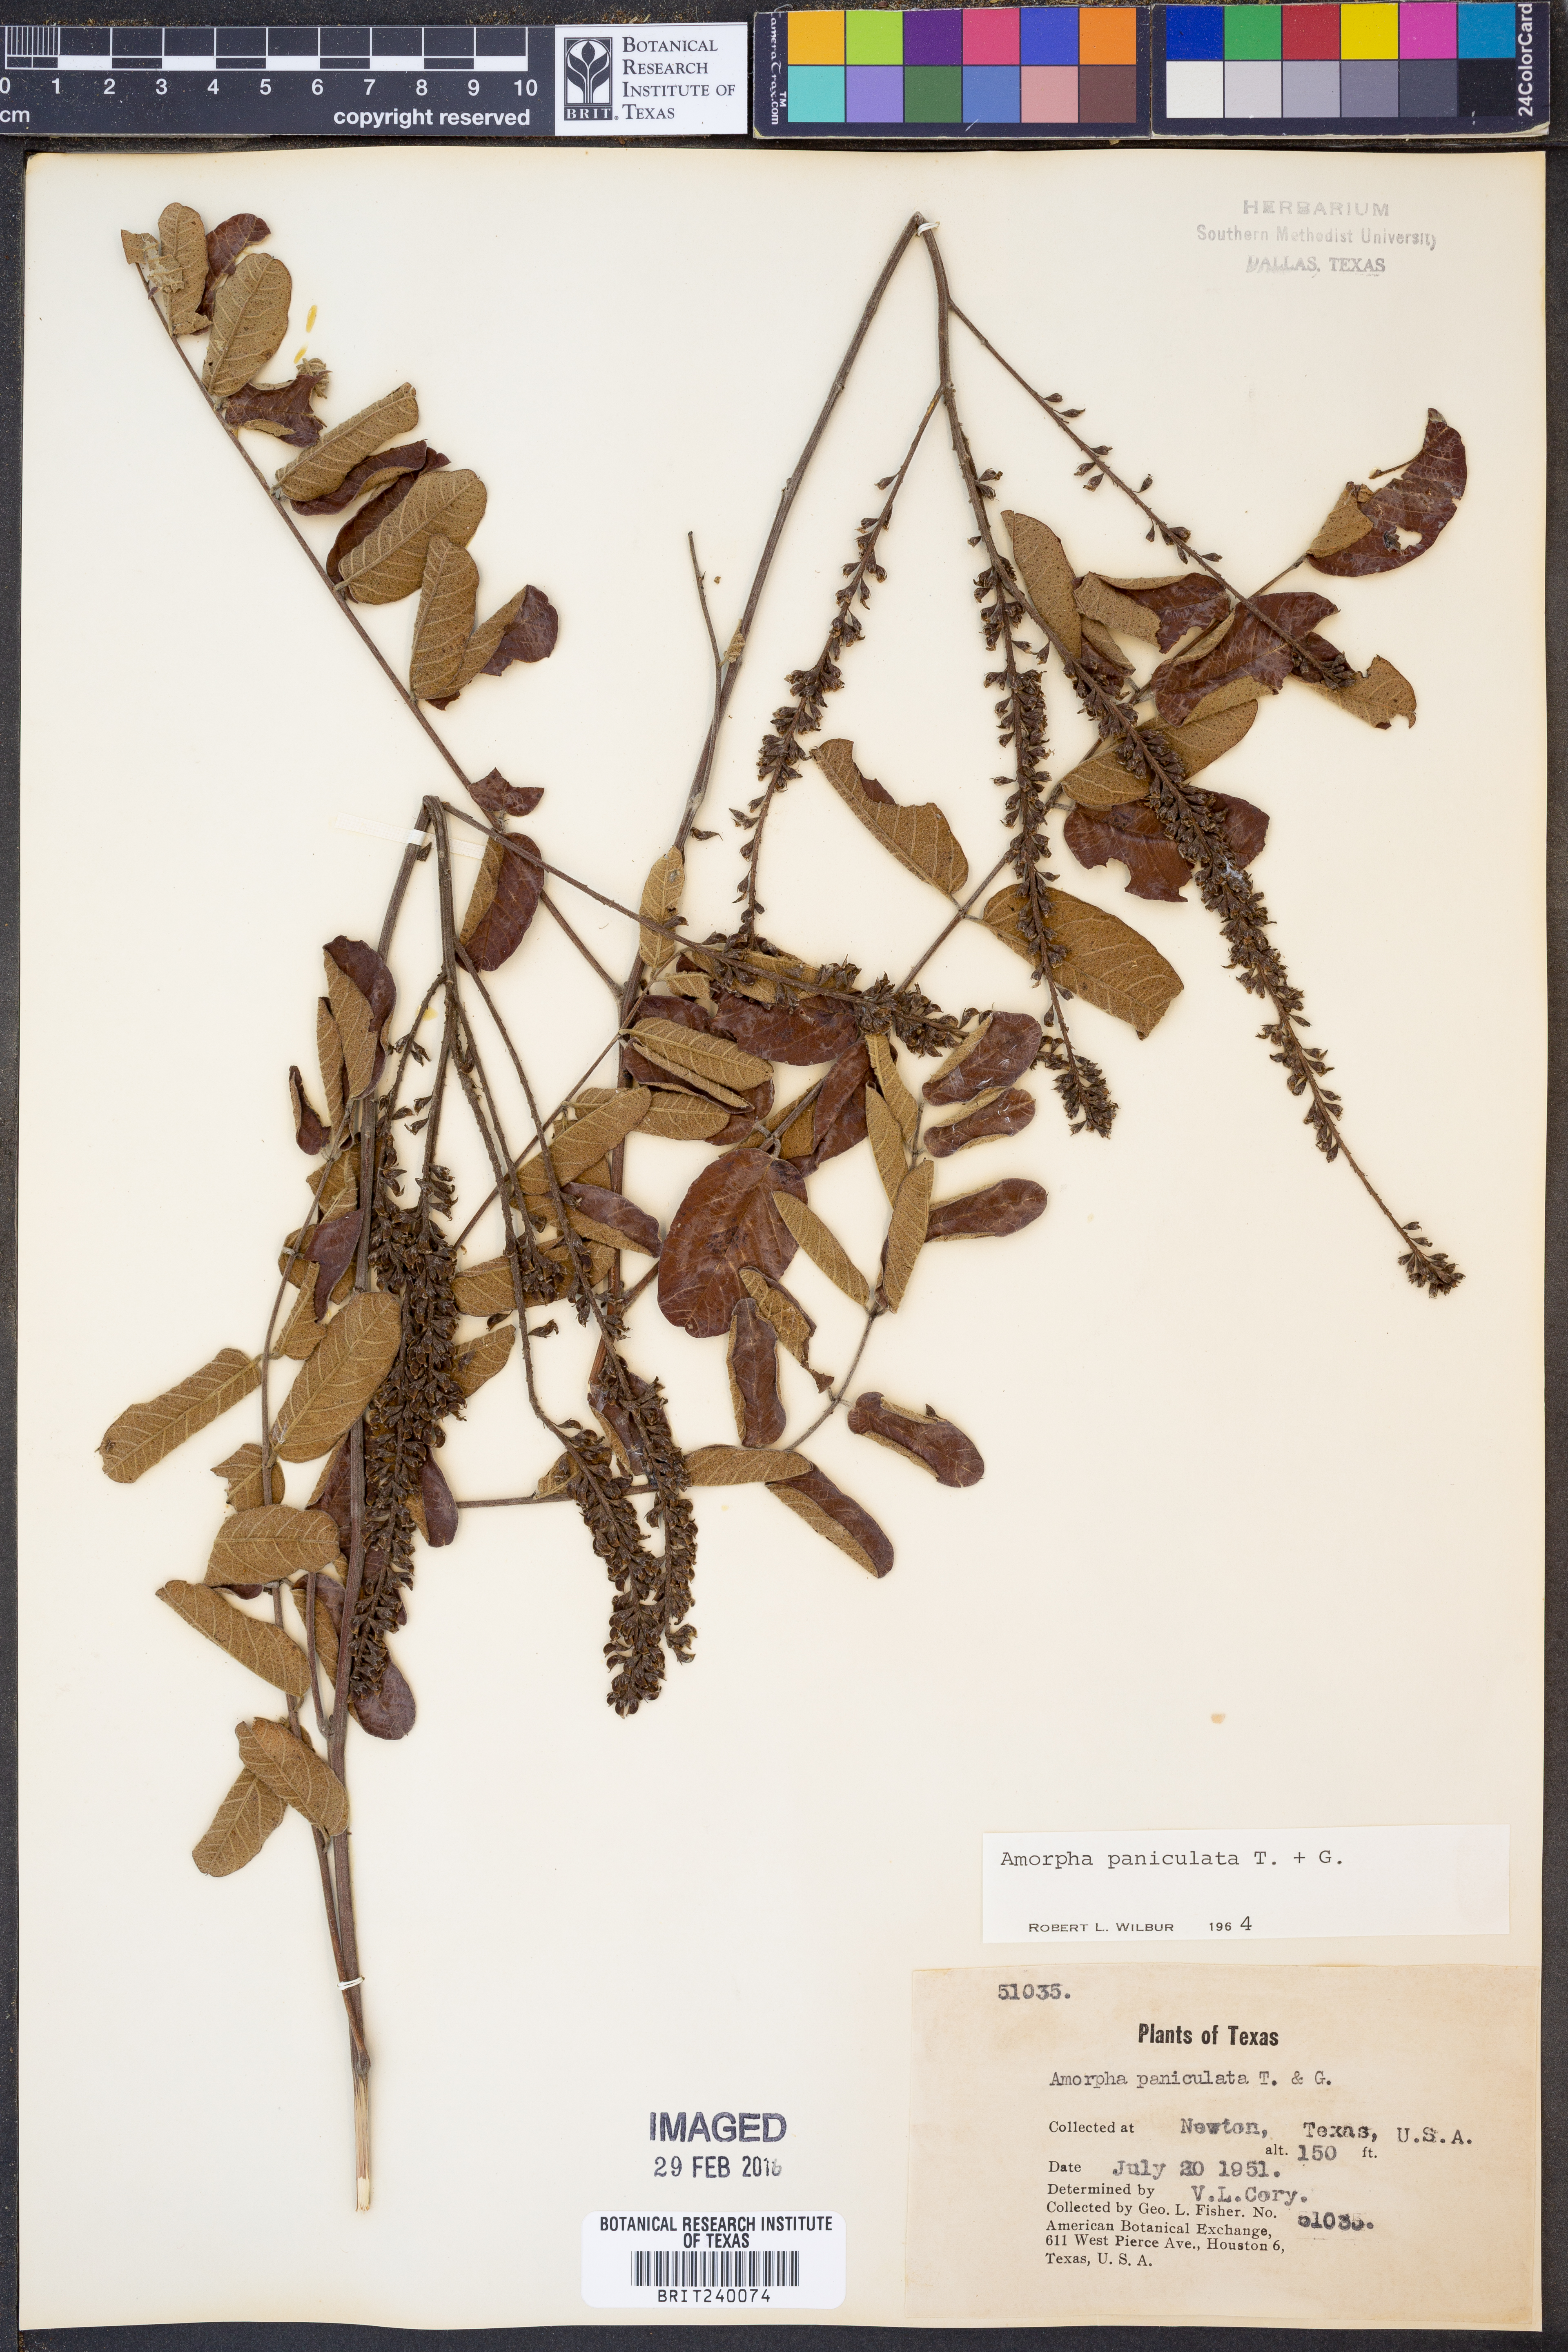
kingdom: Plantae
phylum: Tracheophyta
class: Magnoliopsida
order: Fabales
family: Fabaceae
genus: Amorpha
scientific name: Amorpha paniculata
